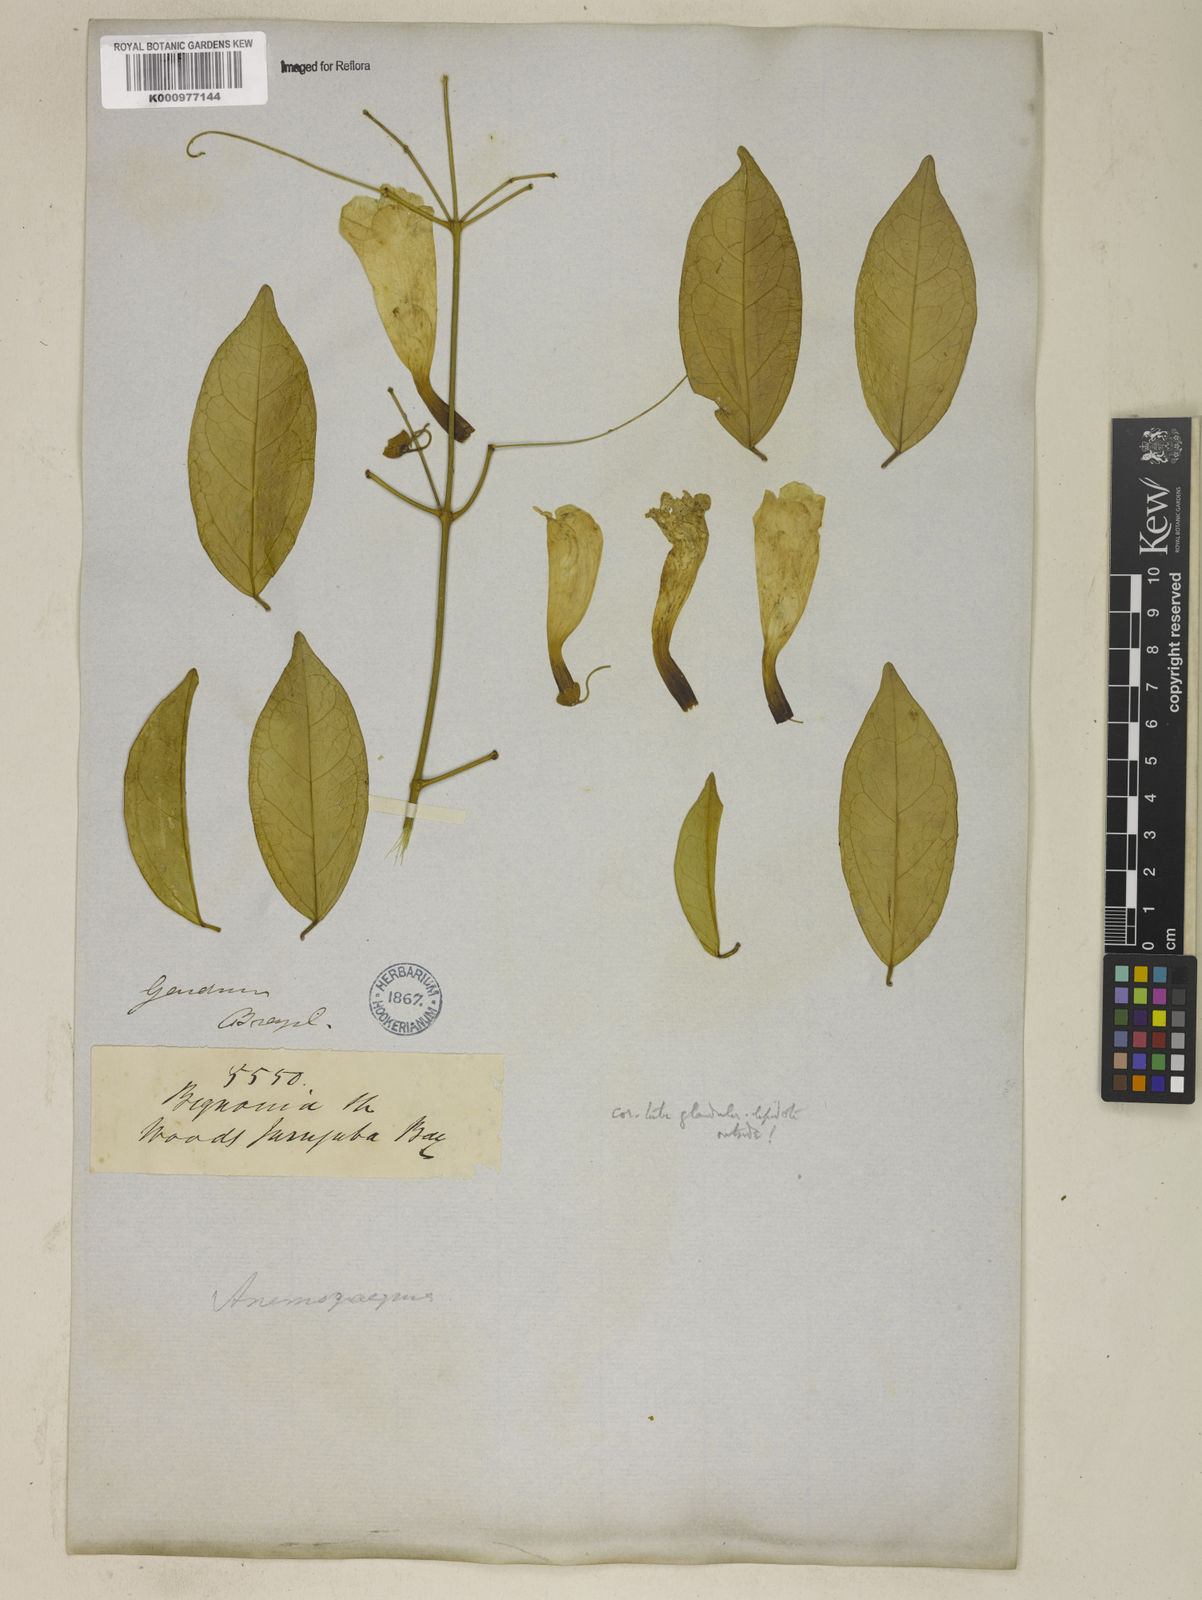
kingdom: Plantae
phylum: Tracheophyta
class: Magnoliopsida
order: Lamiales
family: Bignoniaceae
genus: Anemopaegma
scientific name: Anemopaegma chamberlaynii
